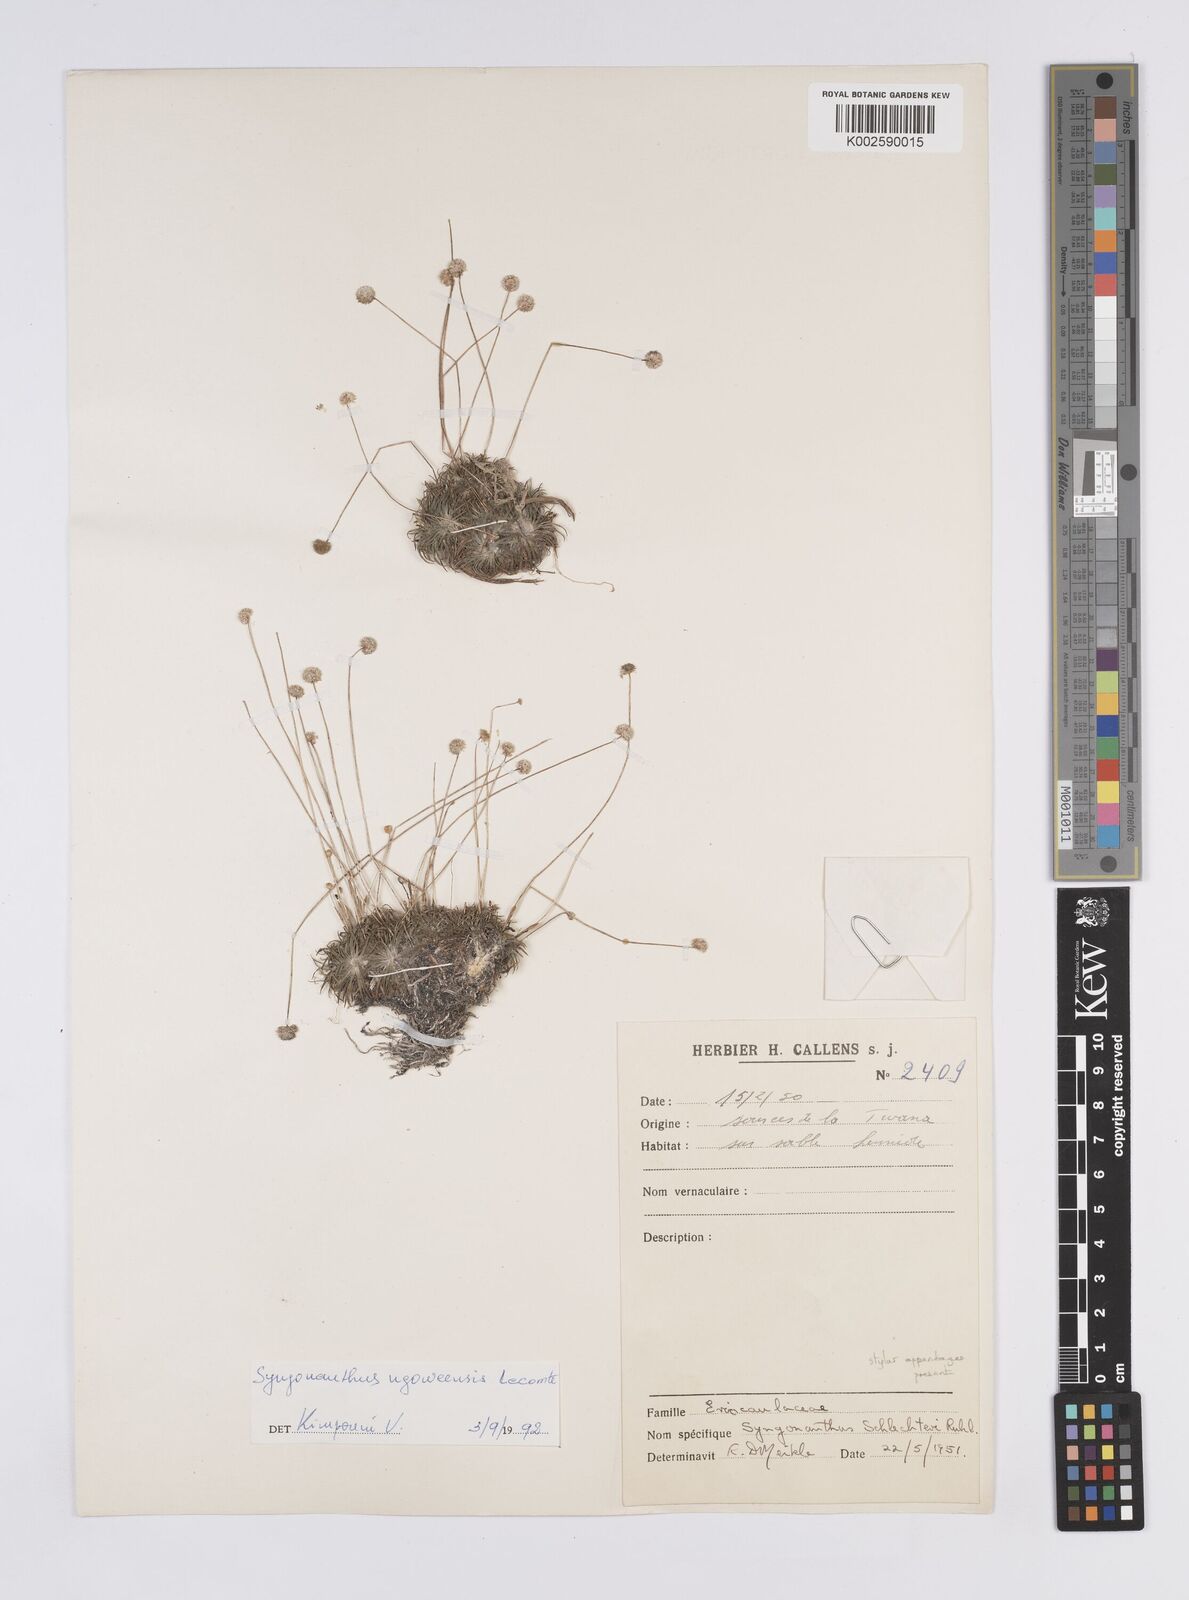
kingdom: Plantae
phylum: Tracheophyta
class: Liliopsida
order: Poales
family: Eriocaulaceae
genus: Syngonanthus
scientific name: Syngonanthus ngoweensis
